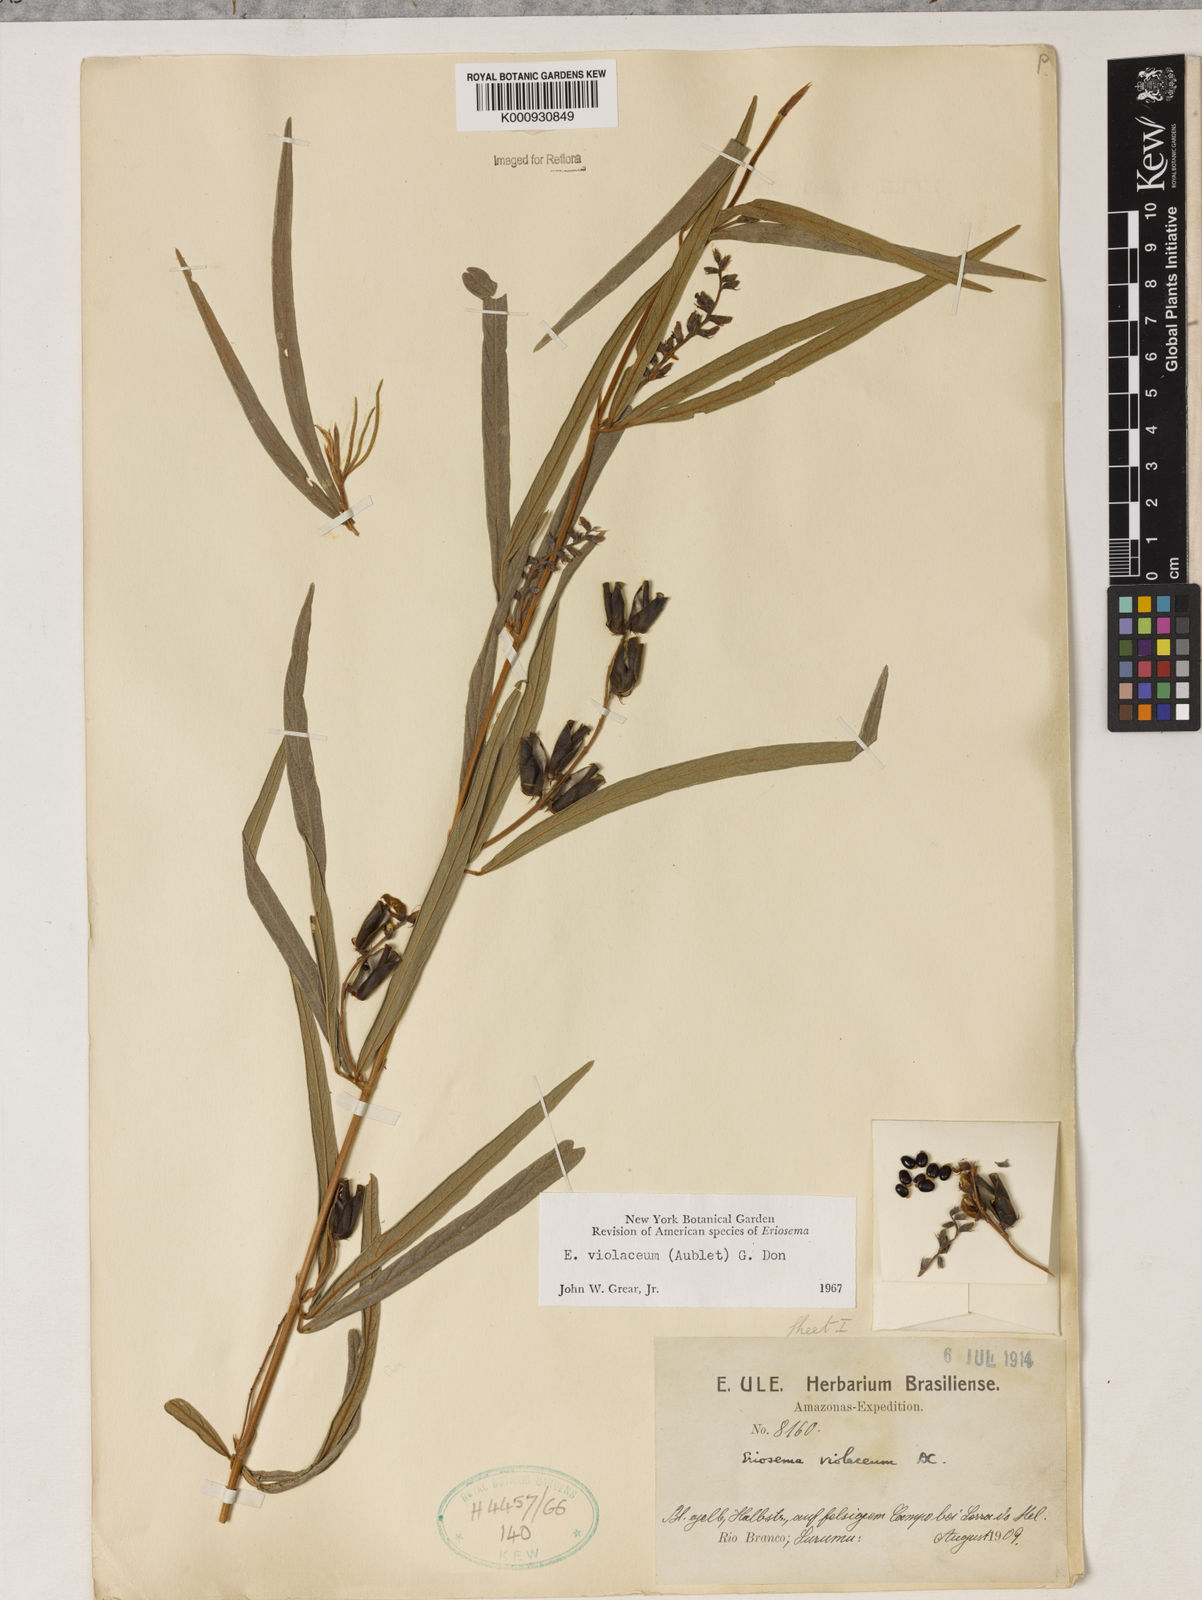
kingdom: Plantae
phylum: Tracheophyta
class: Magnoliopsida
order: Fabales
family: Fabaceae
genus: Eriosema
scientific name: Eriosema violaceum
